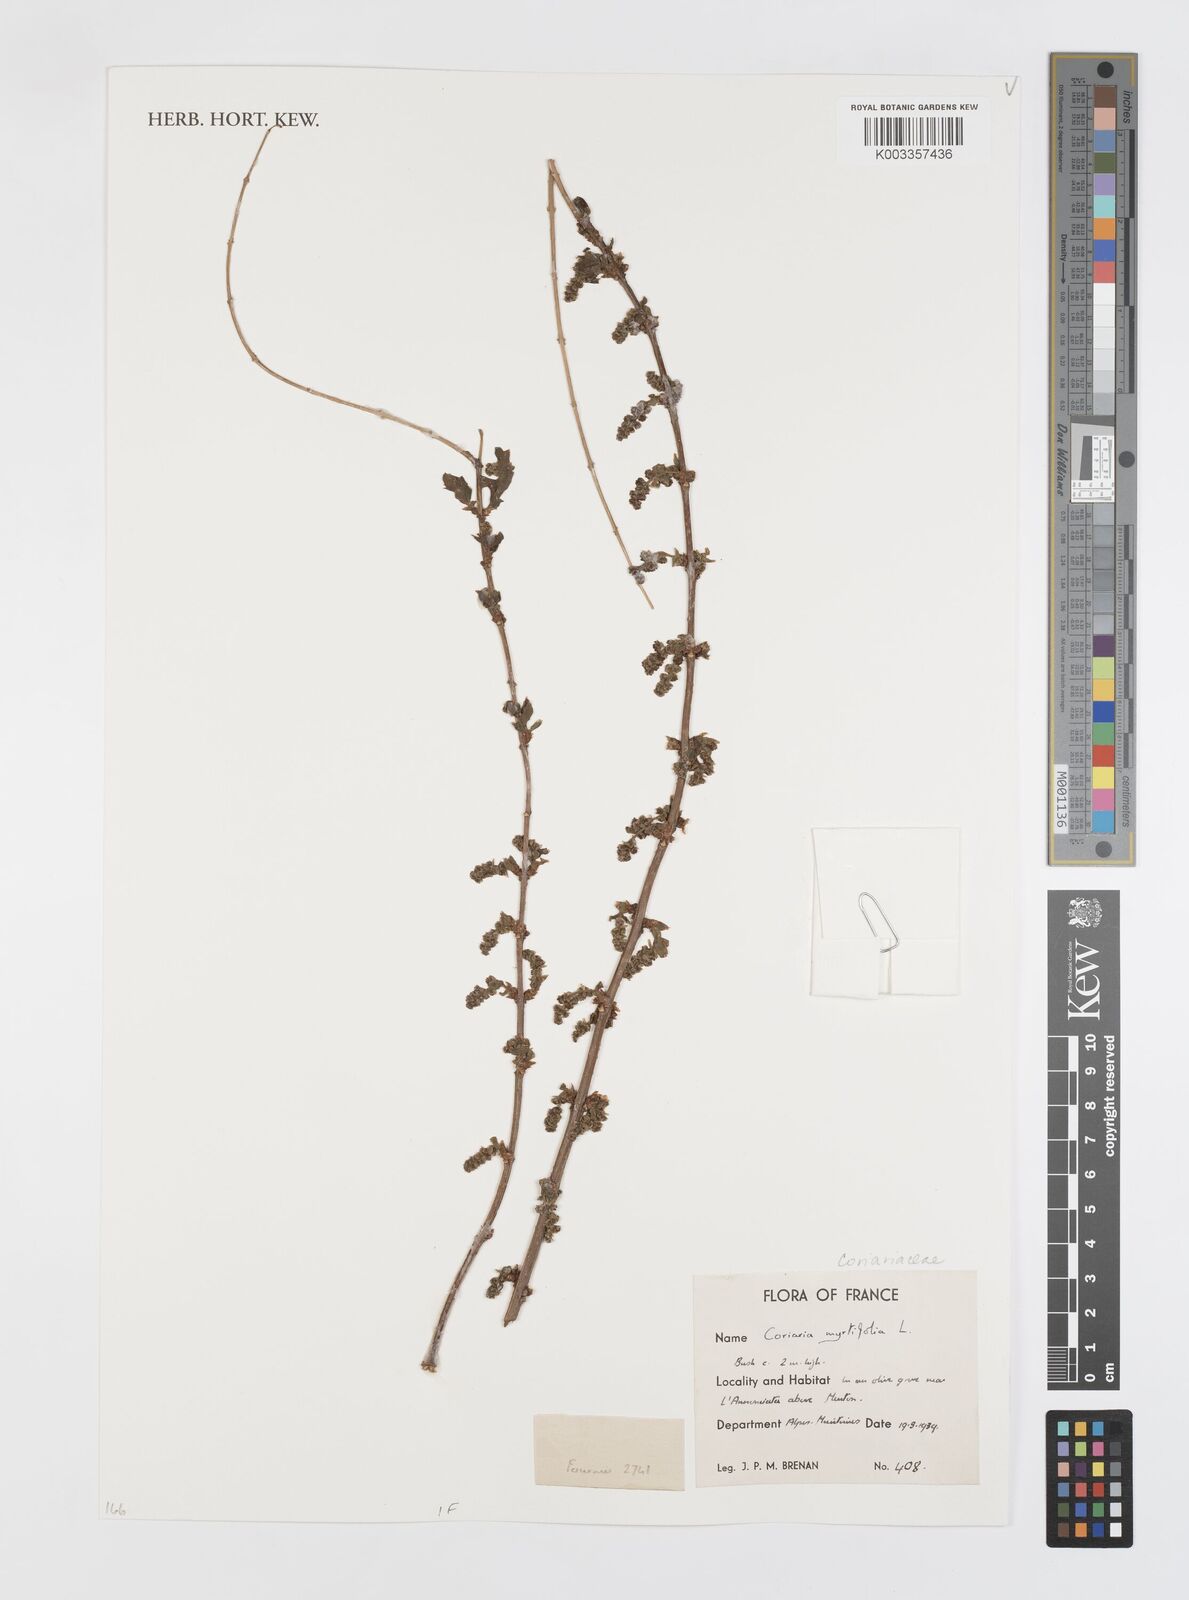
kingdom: Plantae
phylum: Tracheophyta
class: Magnoliopsida
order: Cucurbitales
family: Coriariaceae
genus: Coriaria
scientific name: Coriaria myrtifolia
